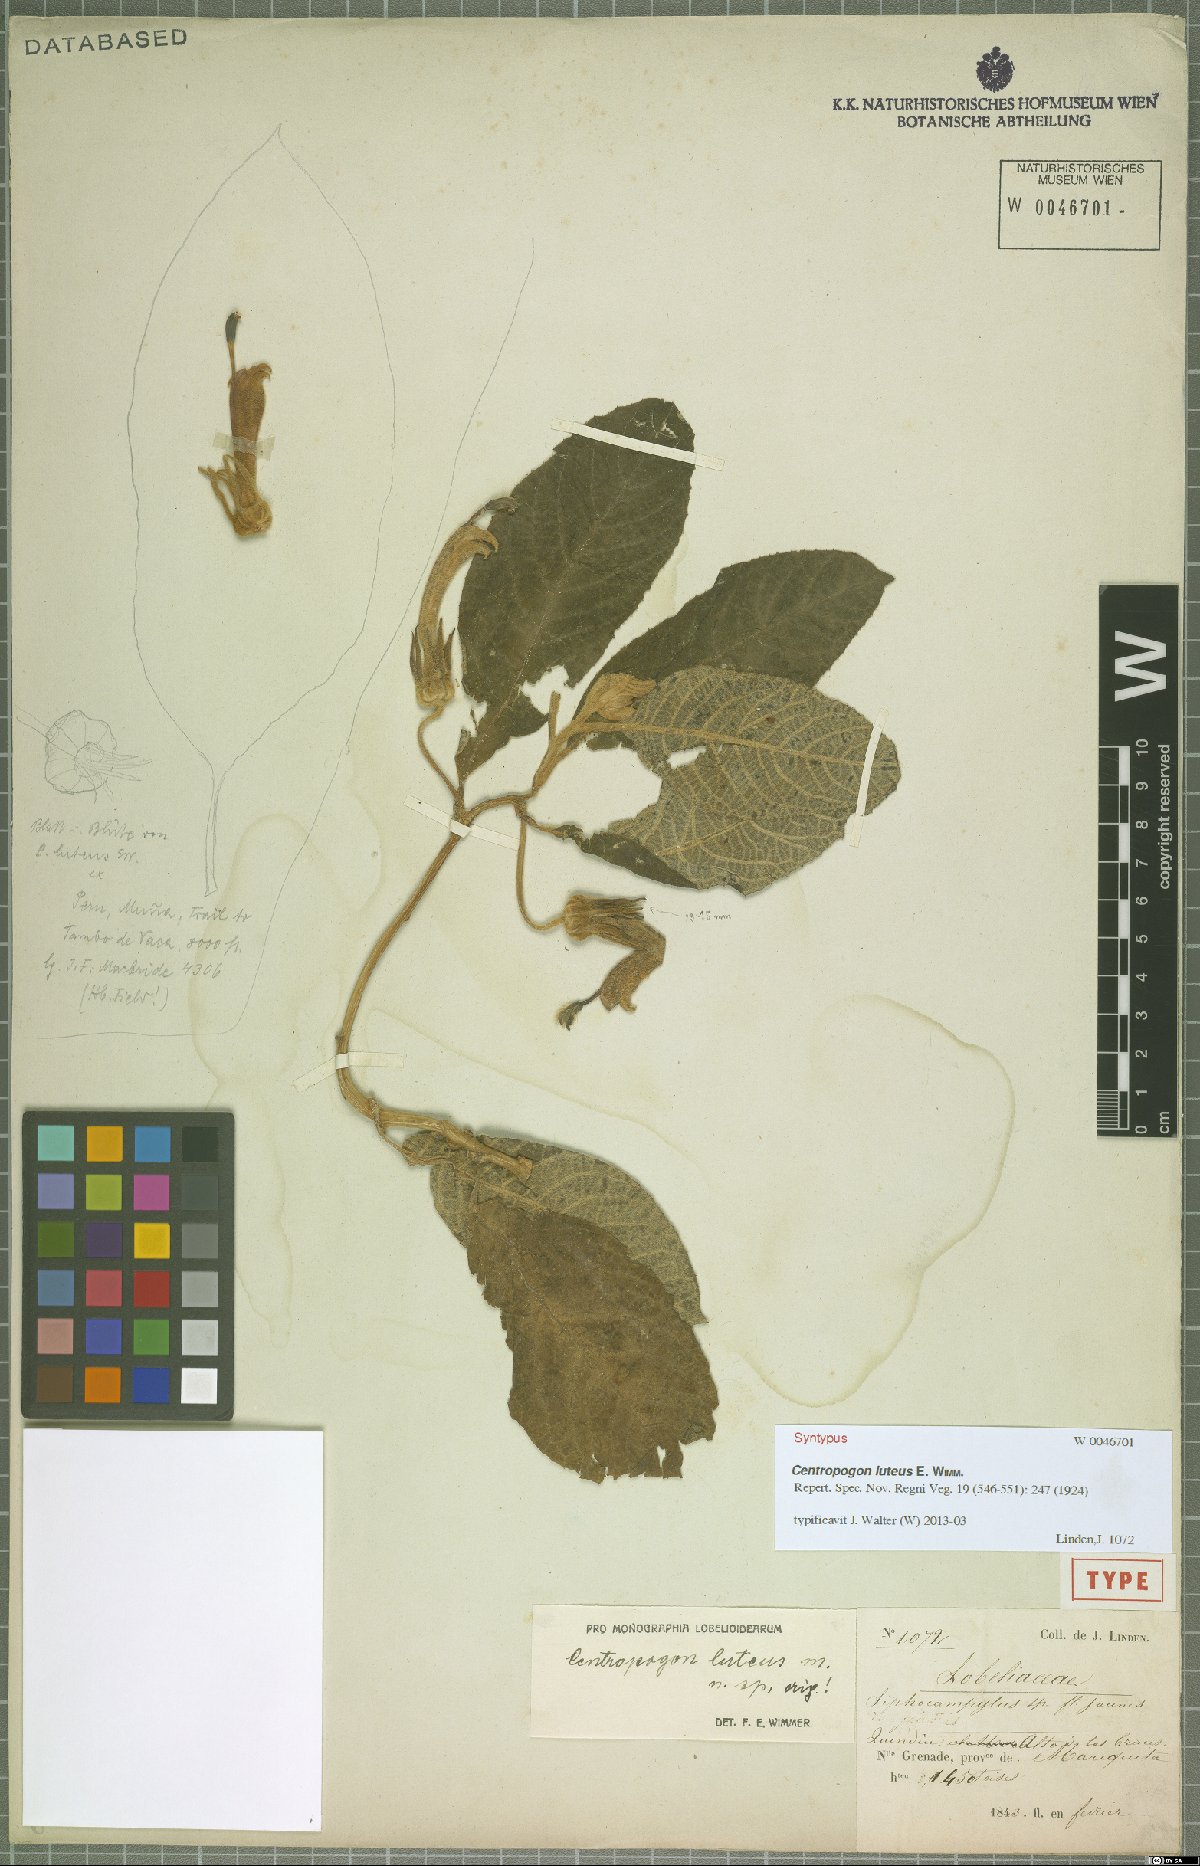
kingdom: Plantae
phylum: Tracheophyta
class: Magnoliopsida
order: Asterales
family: Campanulaceae
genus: Centropogon
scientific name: Centropogon luteus
